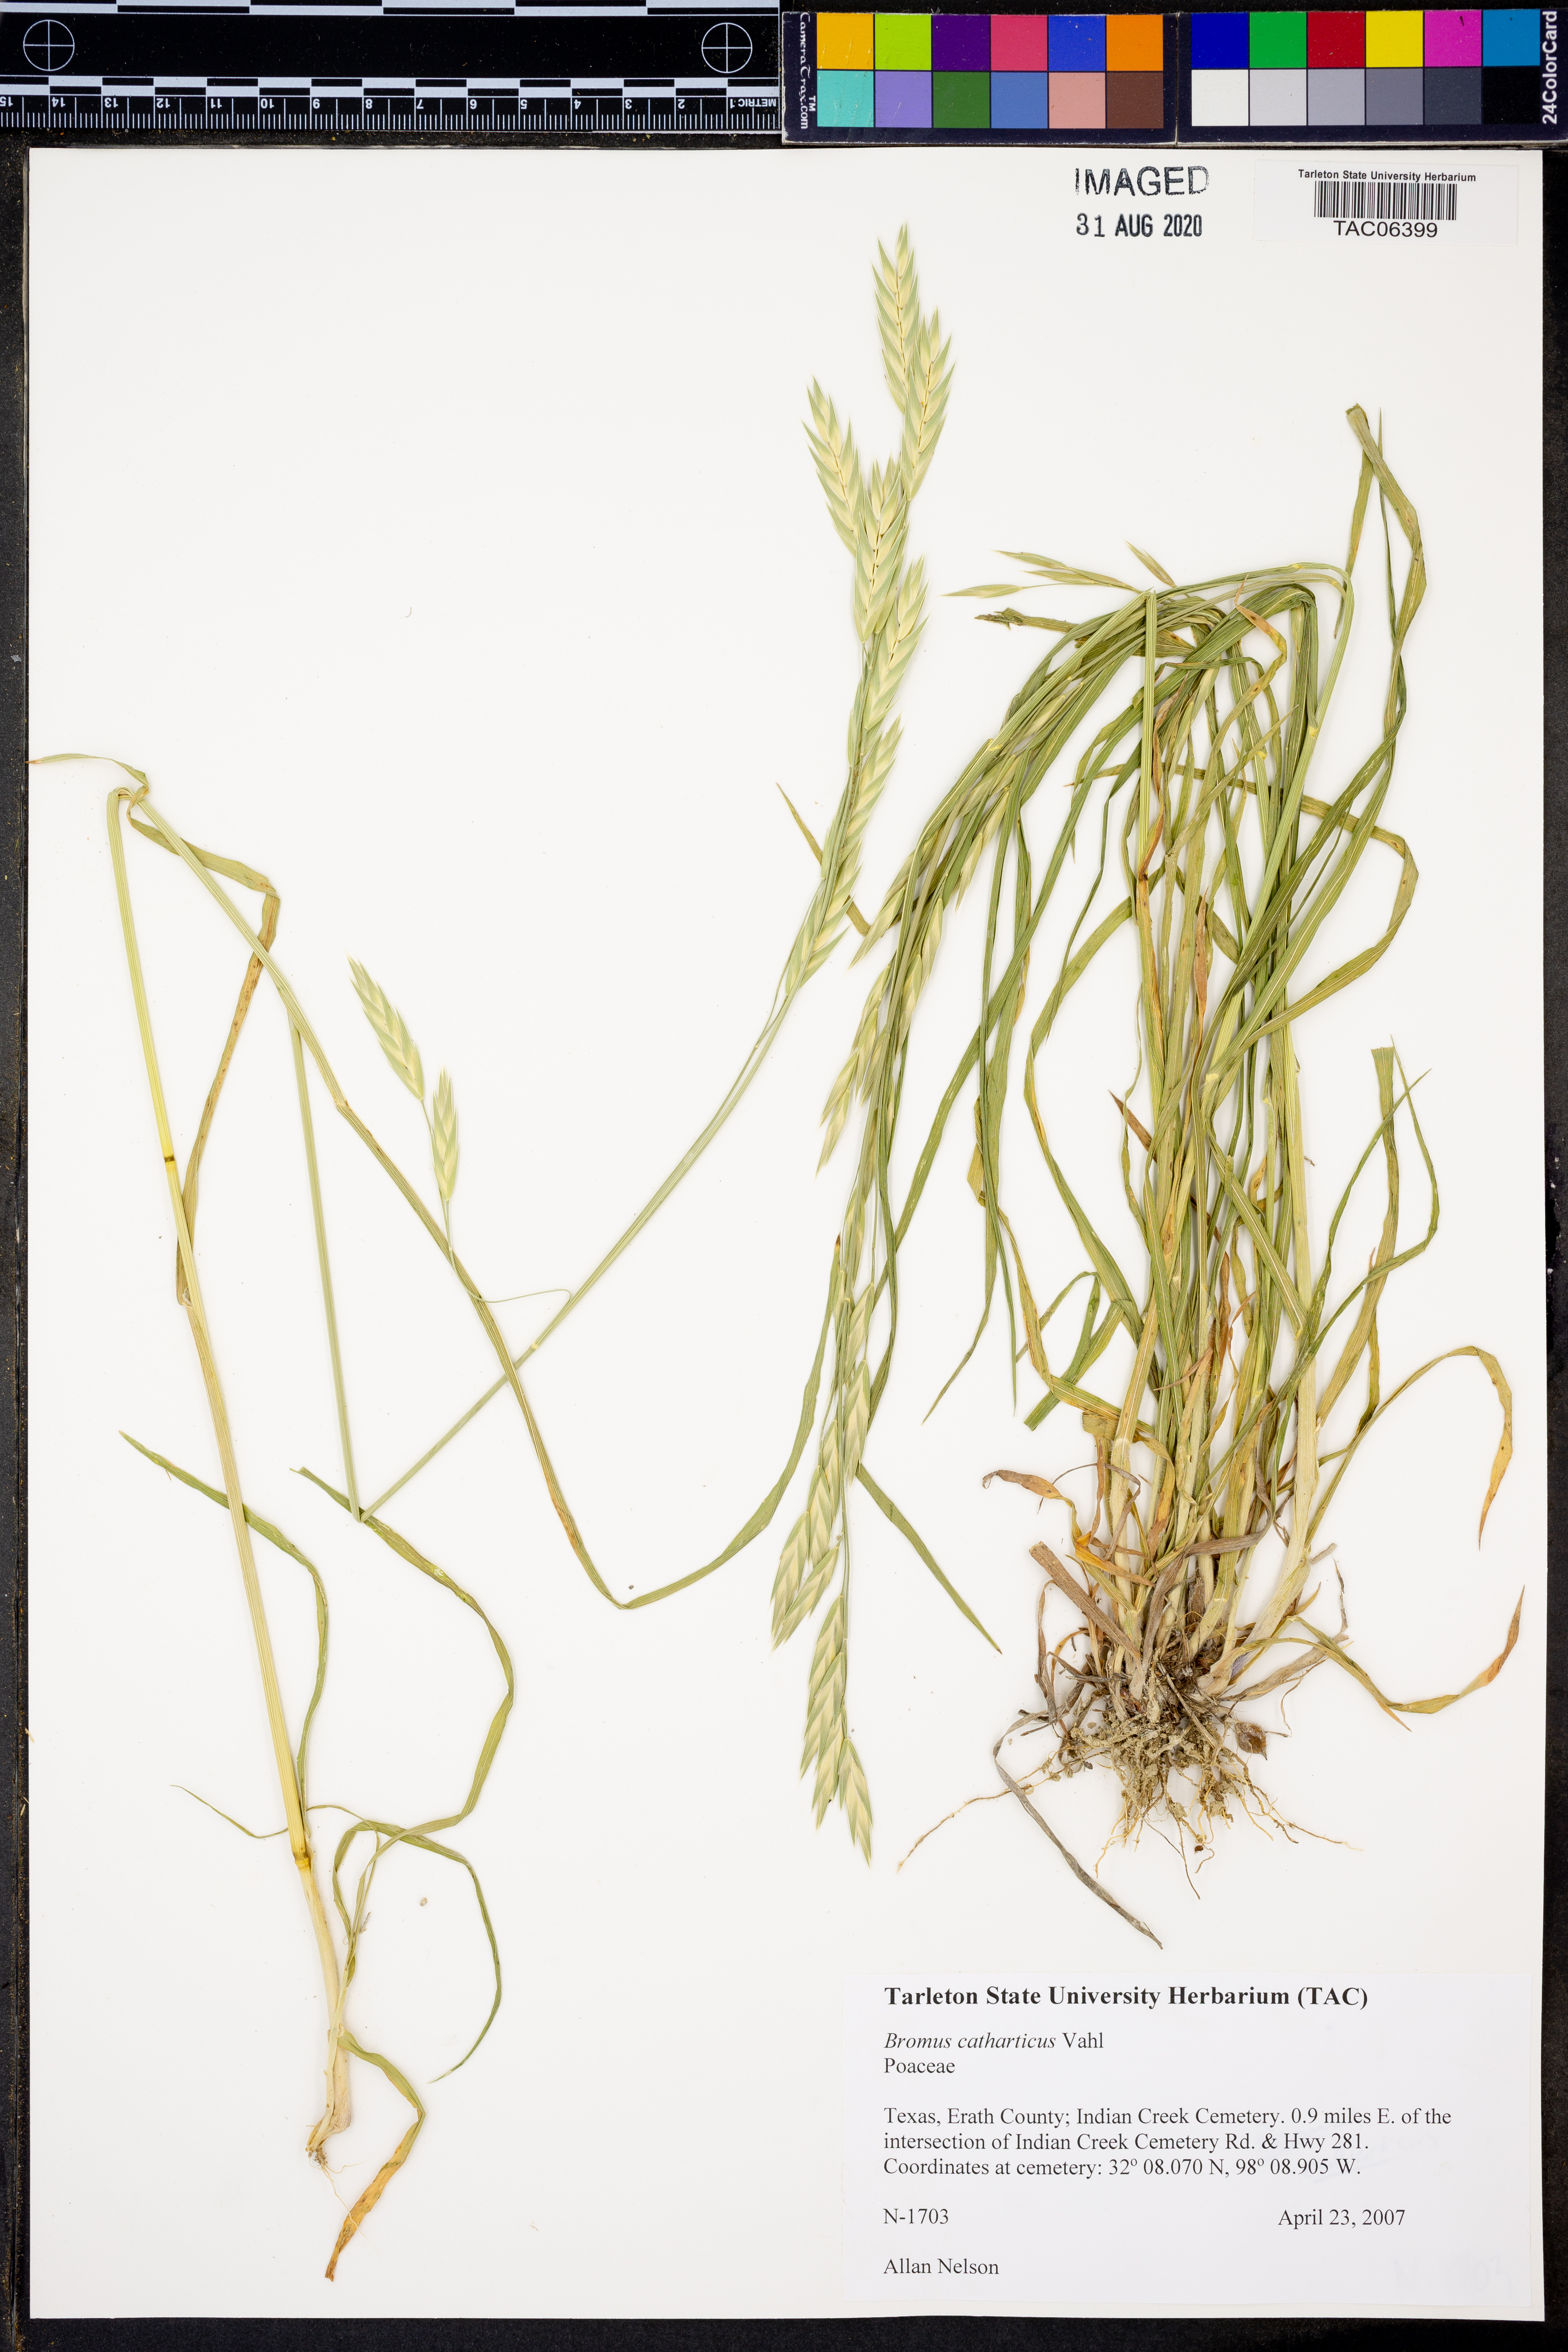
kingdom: Plantae
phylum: Tracheophyta
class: Liliopsida
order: Poales
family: Poaceae
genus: Bromus
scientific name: Bromus catharticus
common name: Rescuegrass
